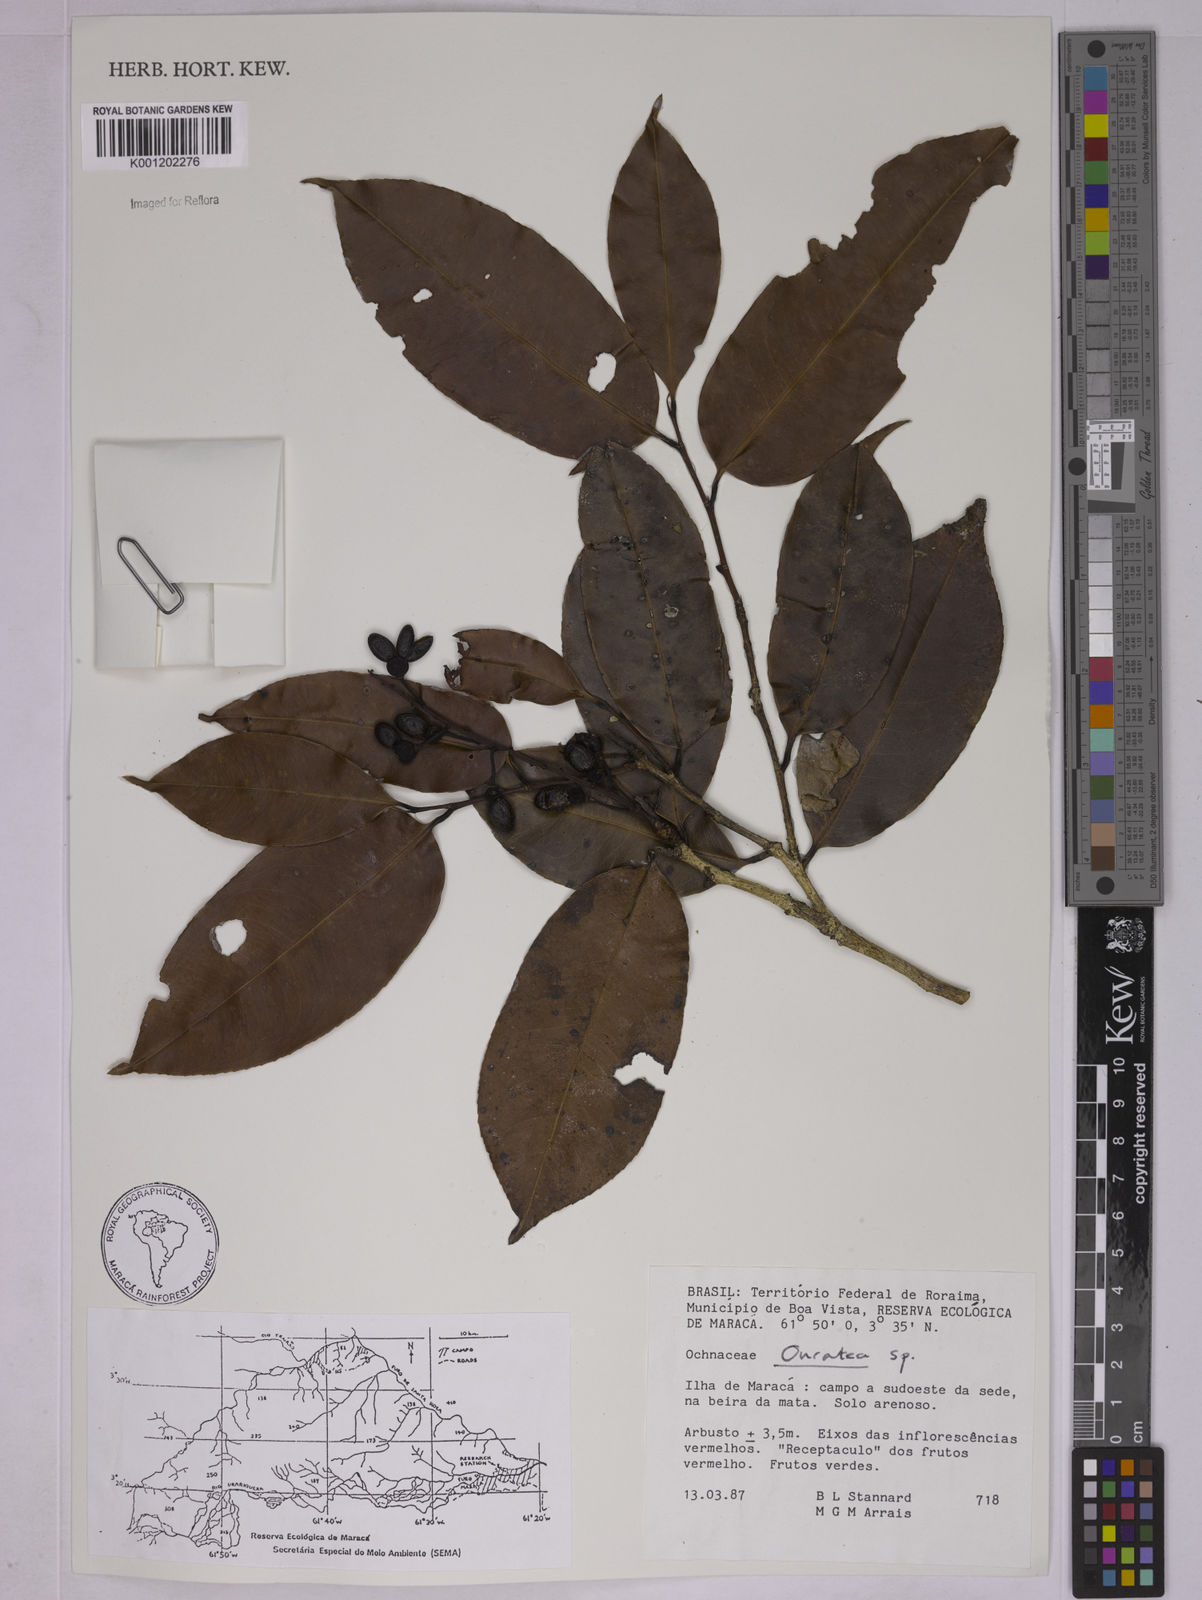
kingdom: Plantae
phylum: Tracheophyta
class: Magnoliopsida
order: Malpighiales
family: Ochnaceae
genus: Ouratea
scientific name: Ouratea
